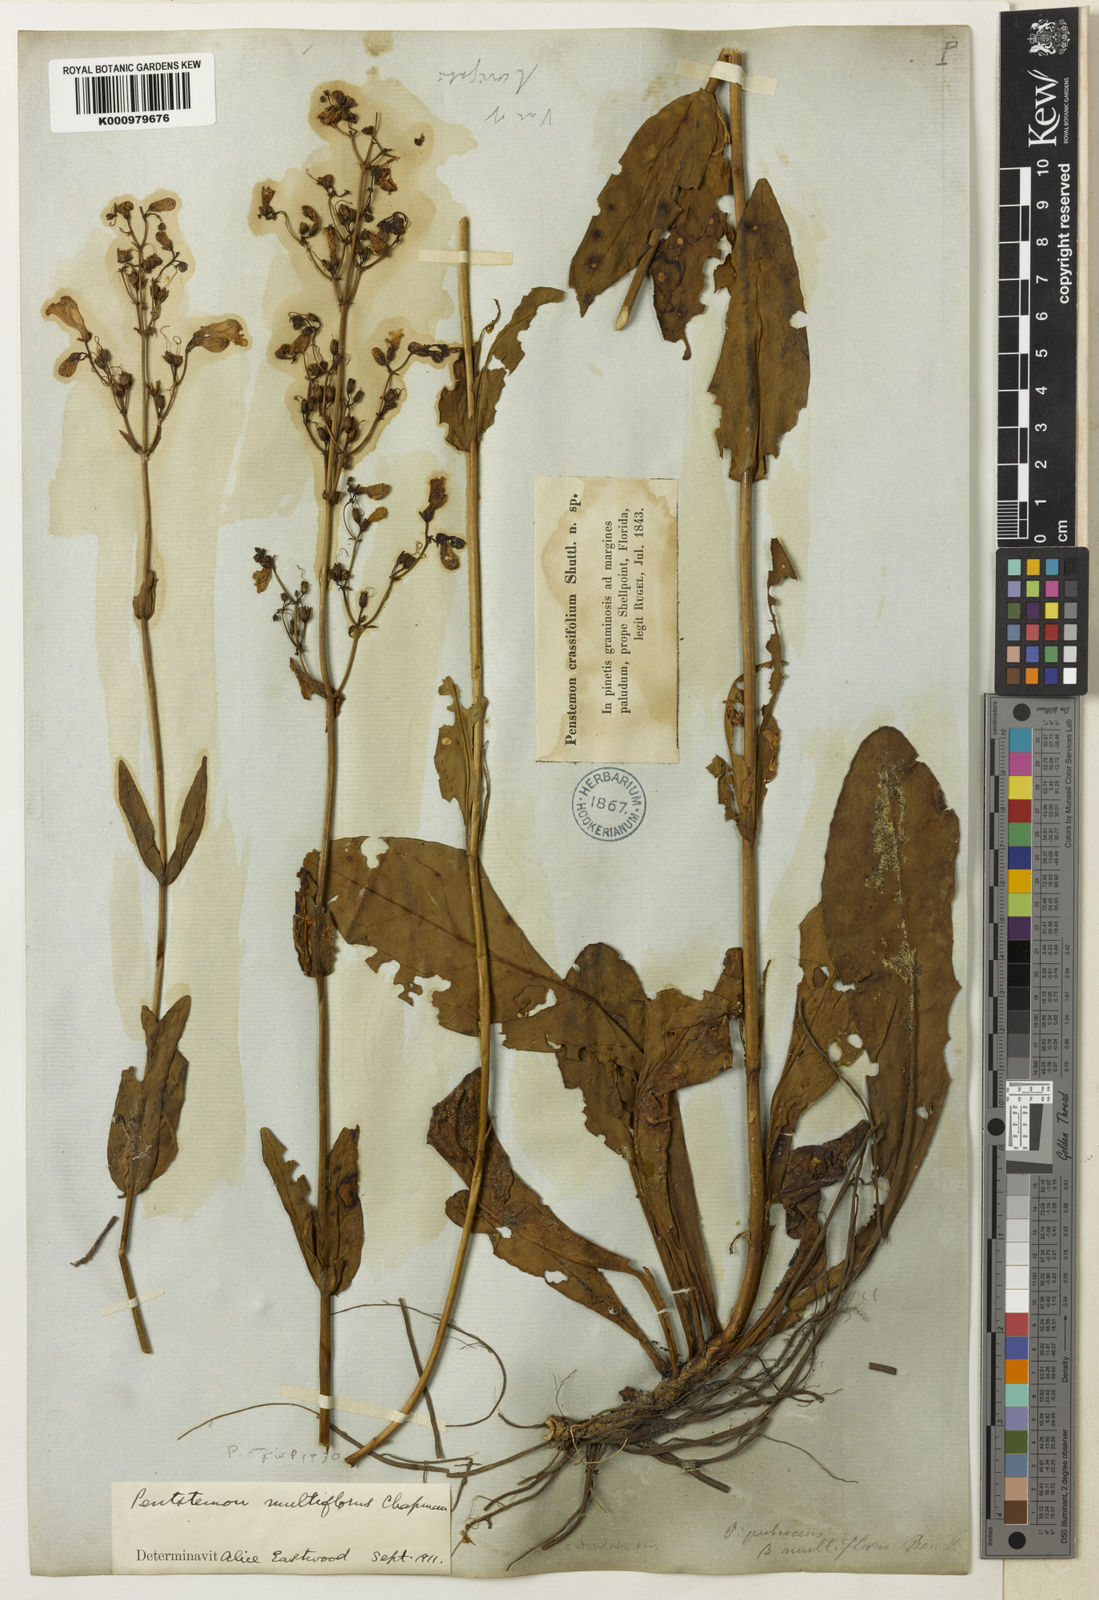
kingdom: Plantae
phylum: Tracheophyta
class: Magnoliopsida
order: Lamiales
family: Plantaginaceae
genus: Penstemon
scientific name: Penstemon multiflorus
